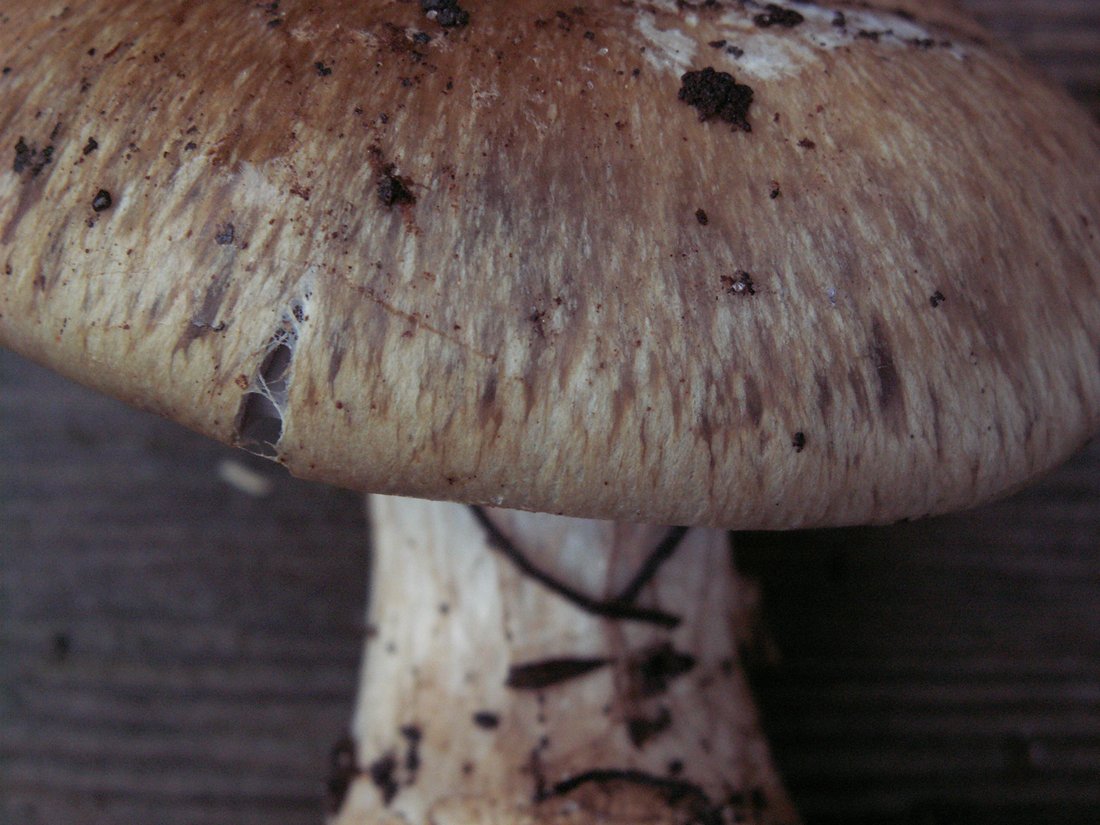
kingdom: Fungi
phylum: Basidiomycota
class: Agaricomycetes
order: Agaricales
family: Cortinariaceae
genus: Phlegmacium
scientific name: Phlegmacium glaucopus
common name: knoldløs slørhat
